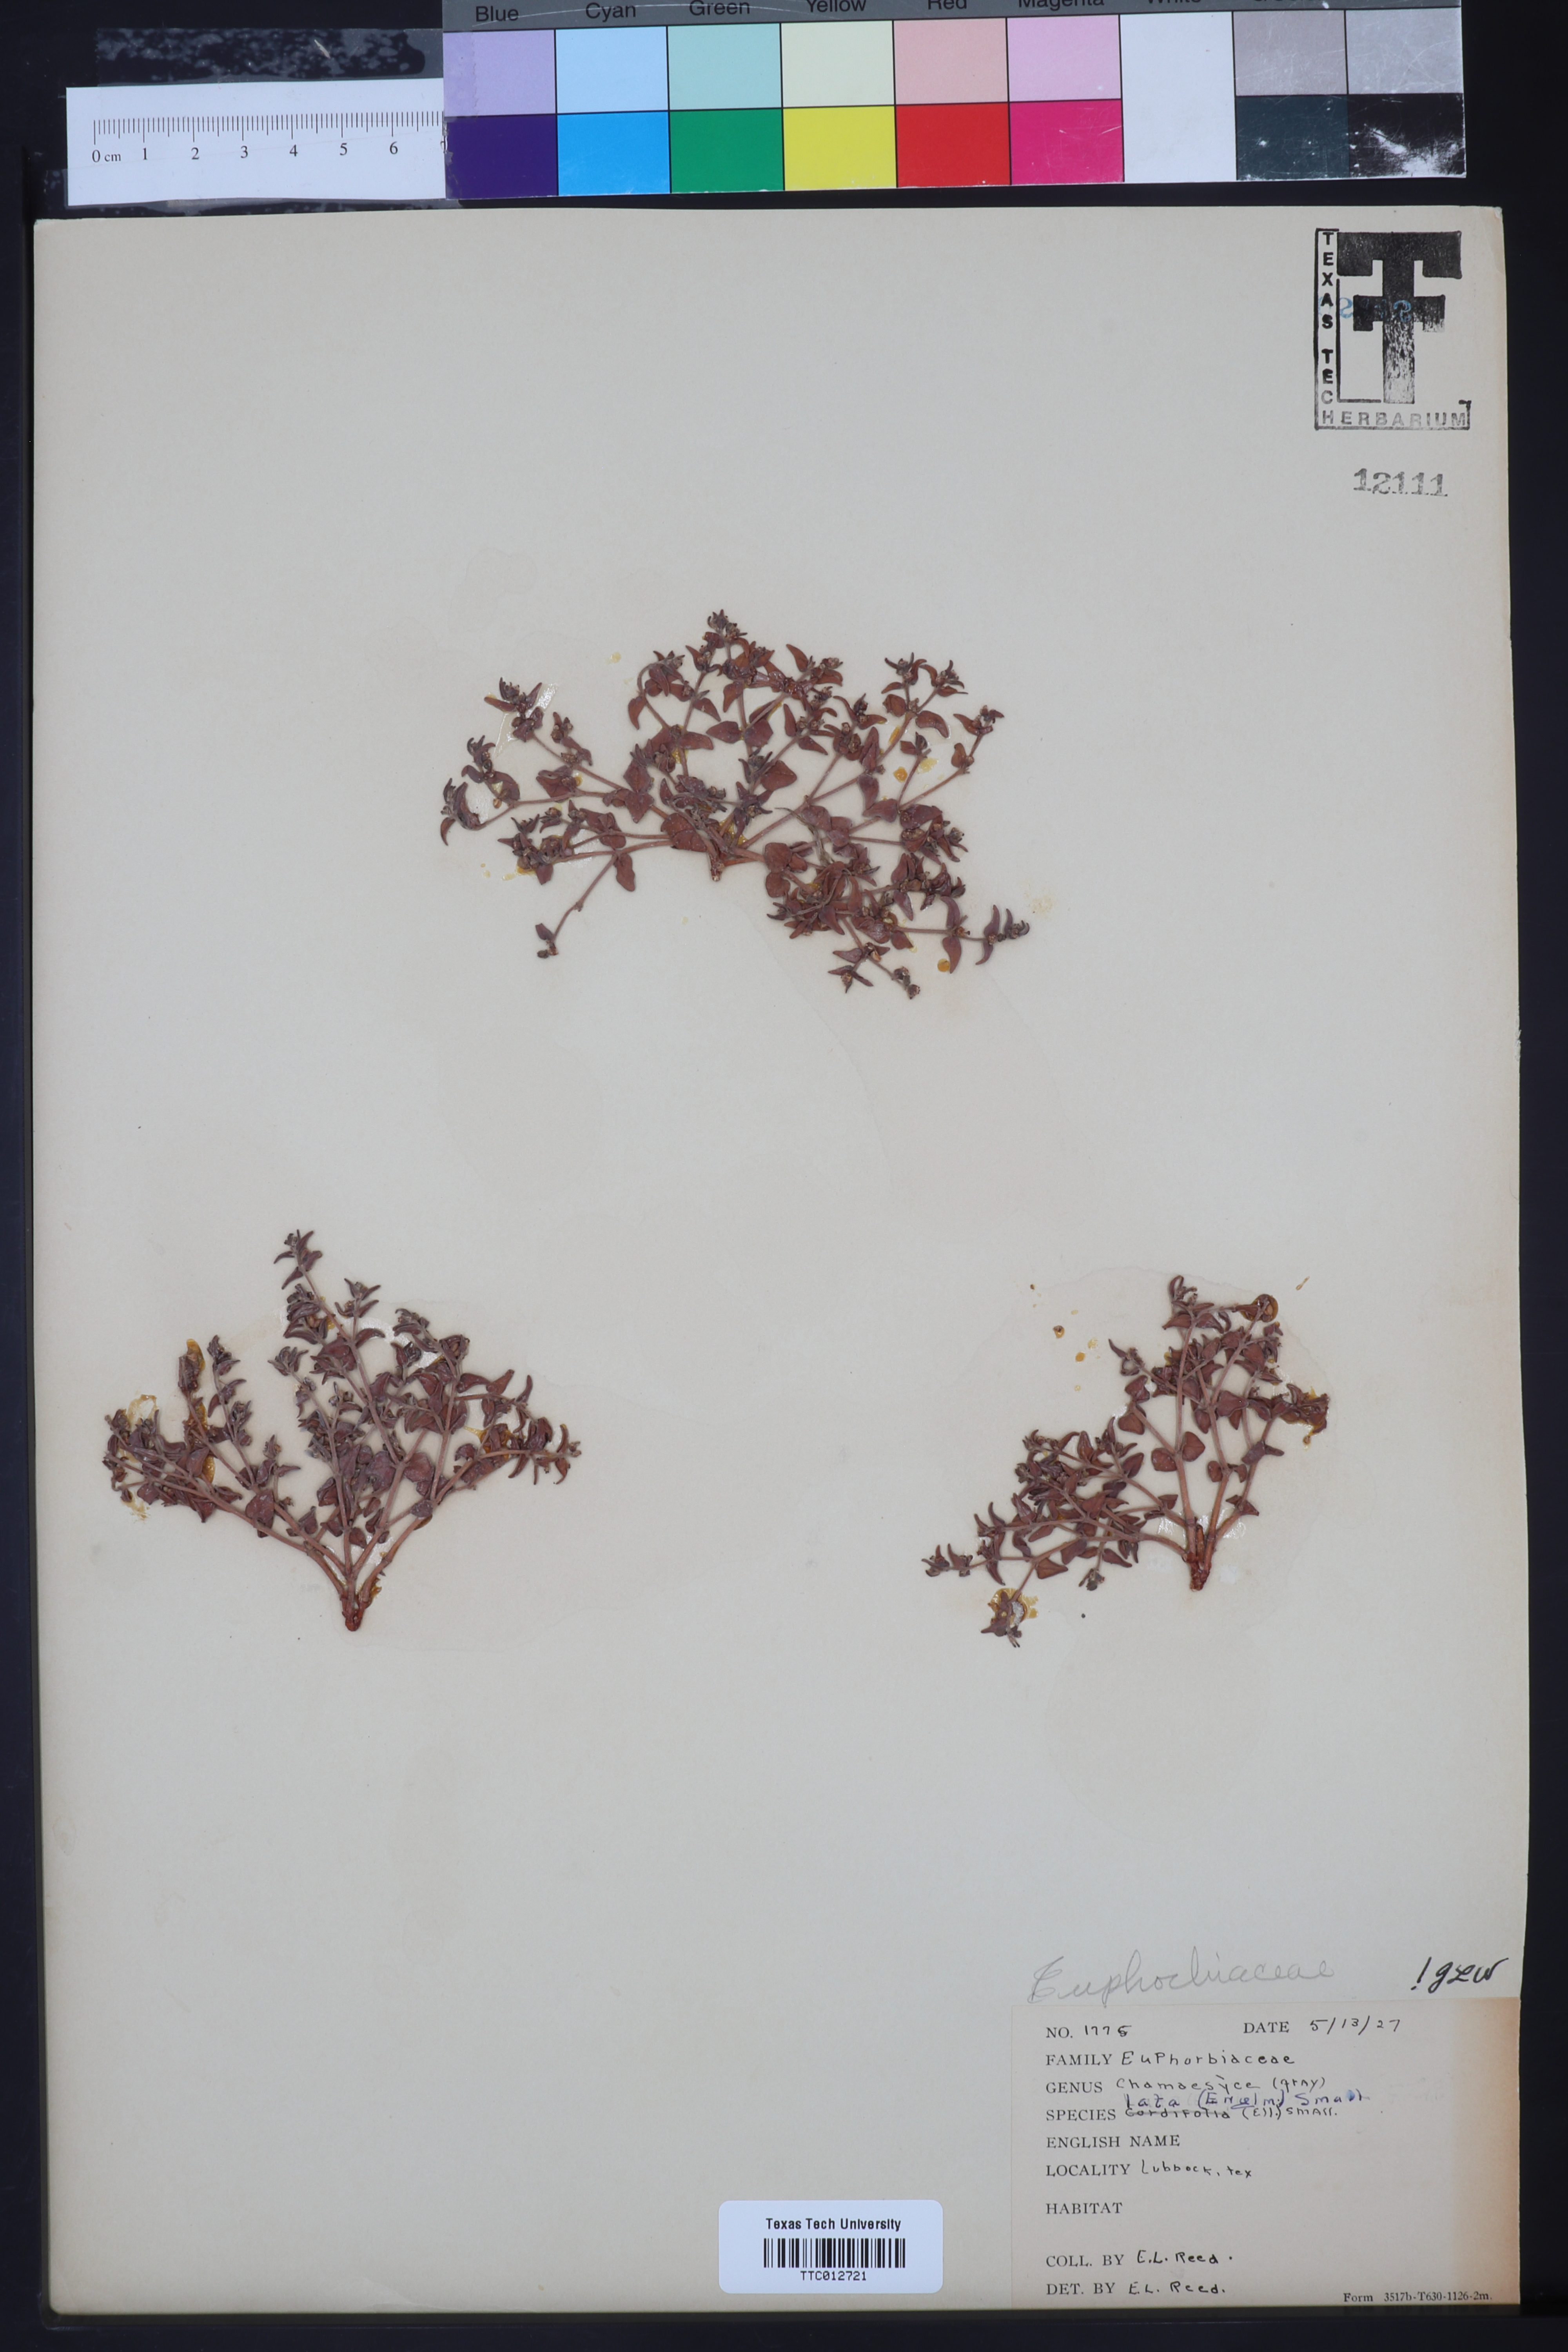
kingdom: Plantae
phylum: Tracheophyta
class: Magnoliopsida
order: Malpighiales
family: Euphorbiaceae
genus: Euphorbia
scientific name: Euphorbia lata
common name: Hoary euphorbia
